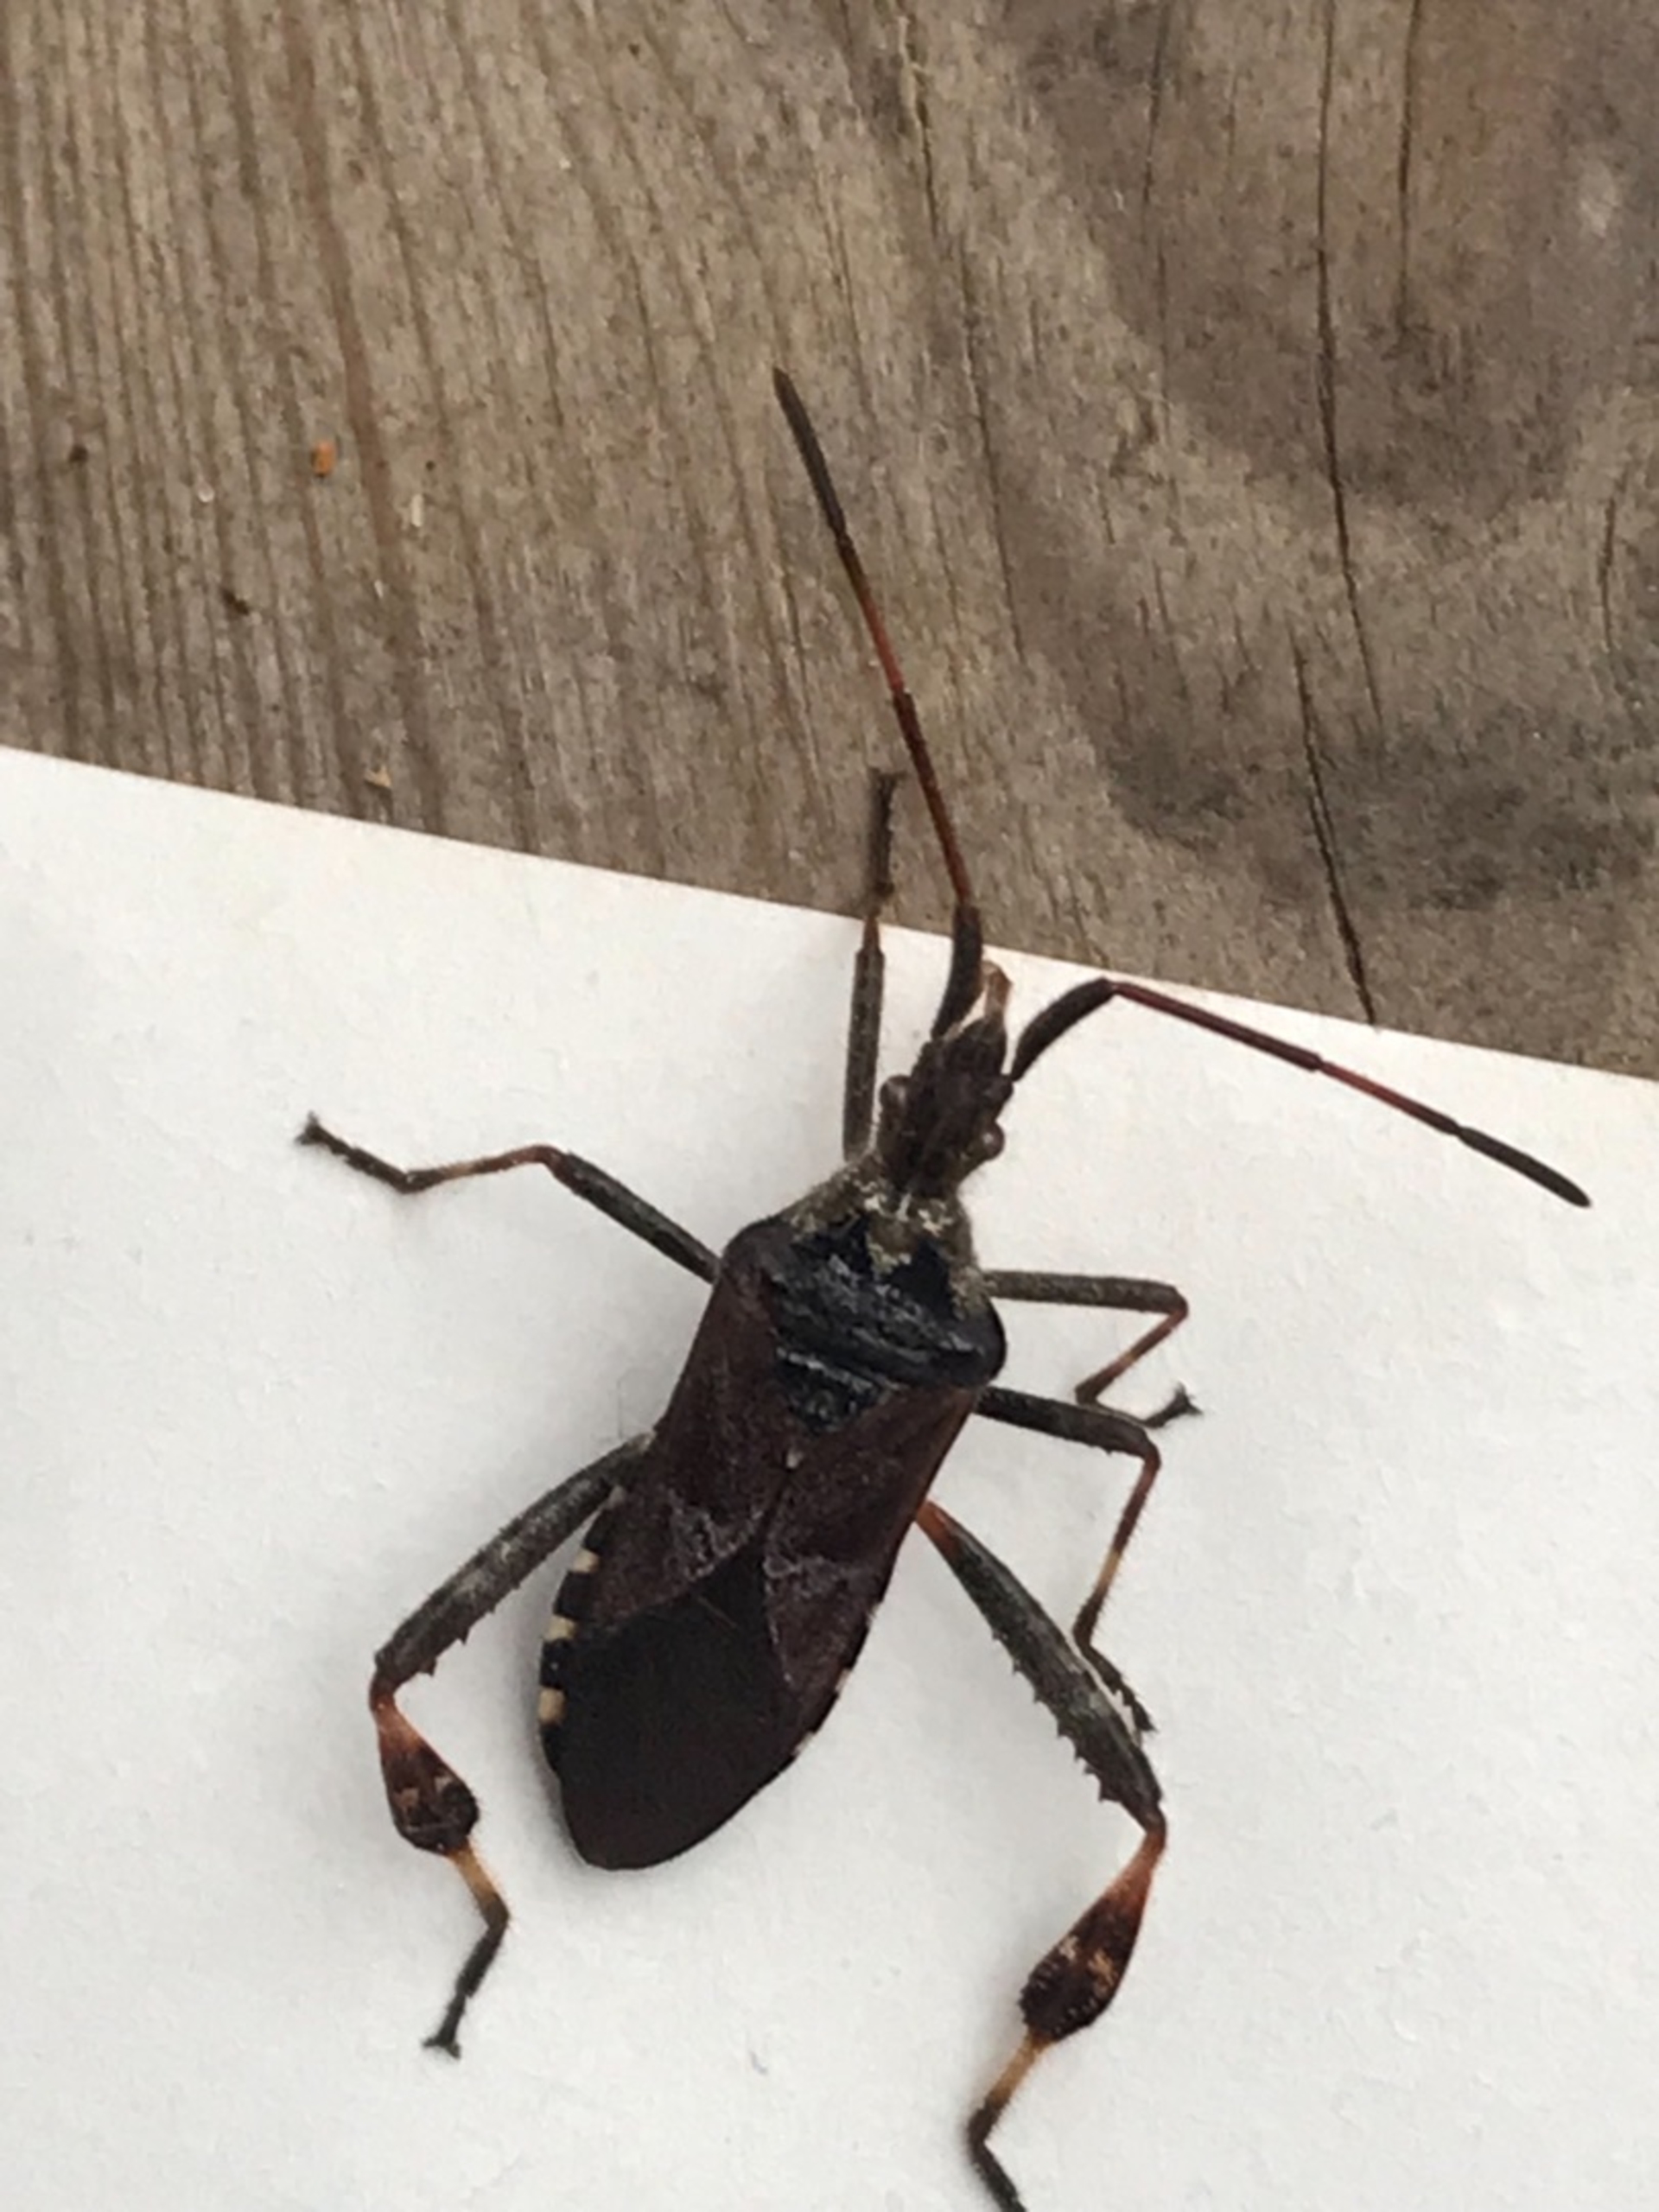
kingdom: Animalia
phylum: Arthropoda
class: Insecta
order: Hemiptera
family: Coreidae
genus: Leptoglossus
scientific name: Leptoglossus occidentalis
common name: Amerikansk fyrretæge
